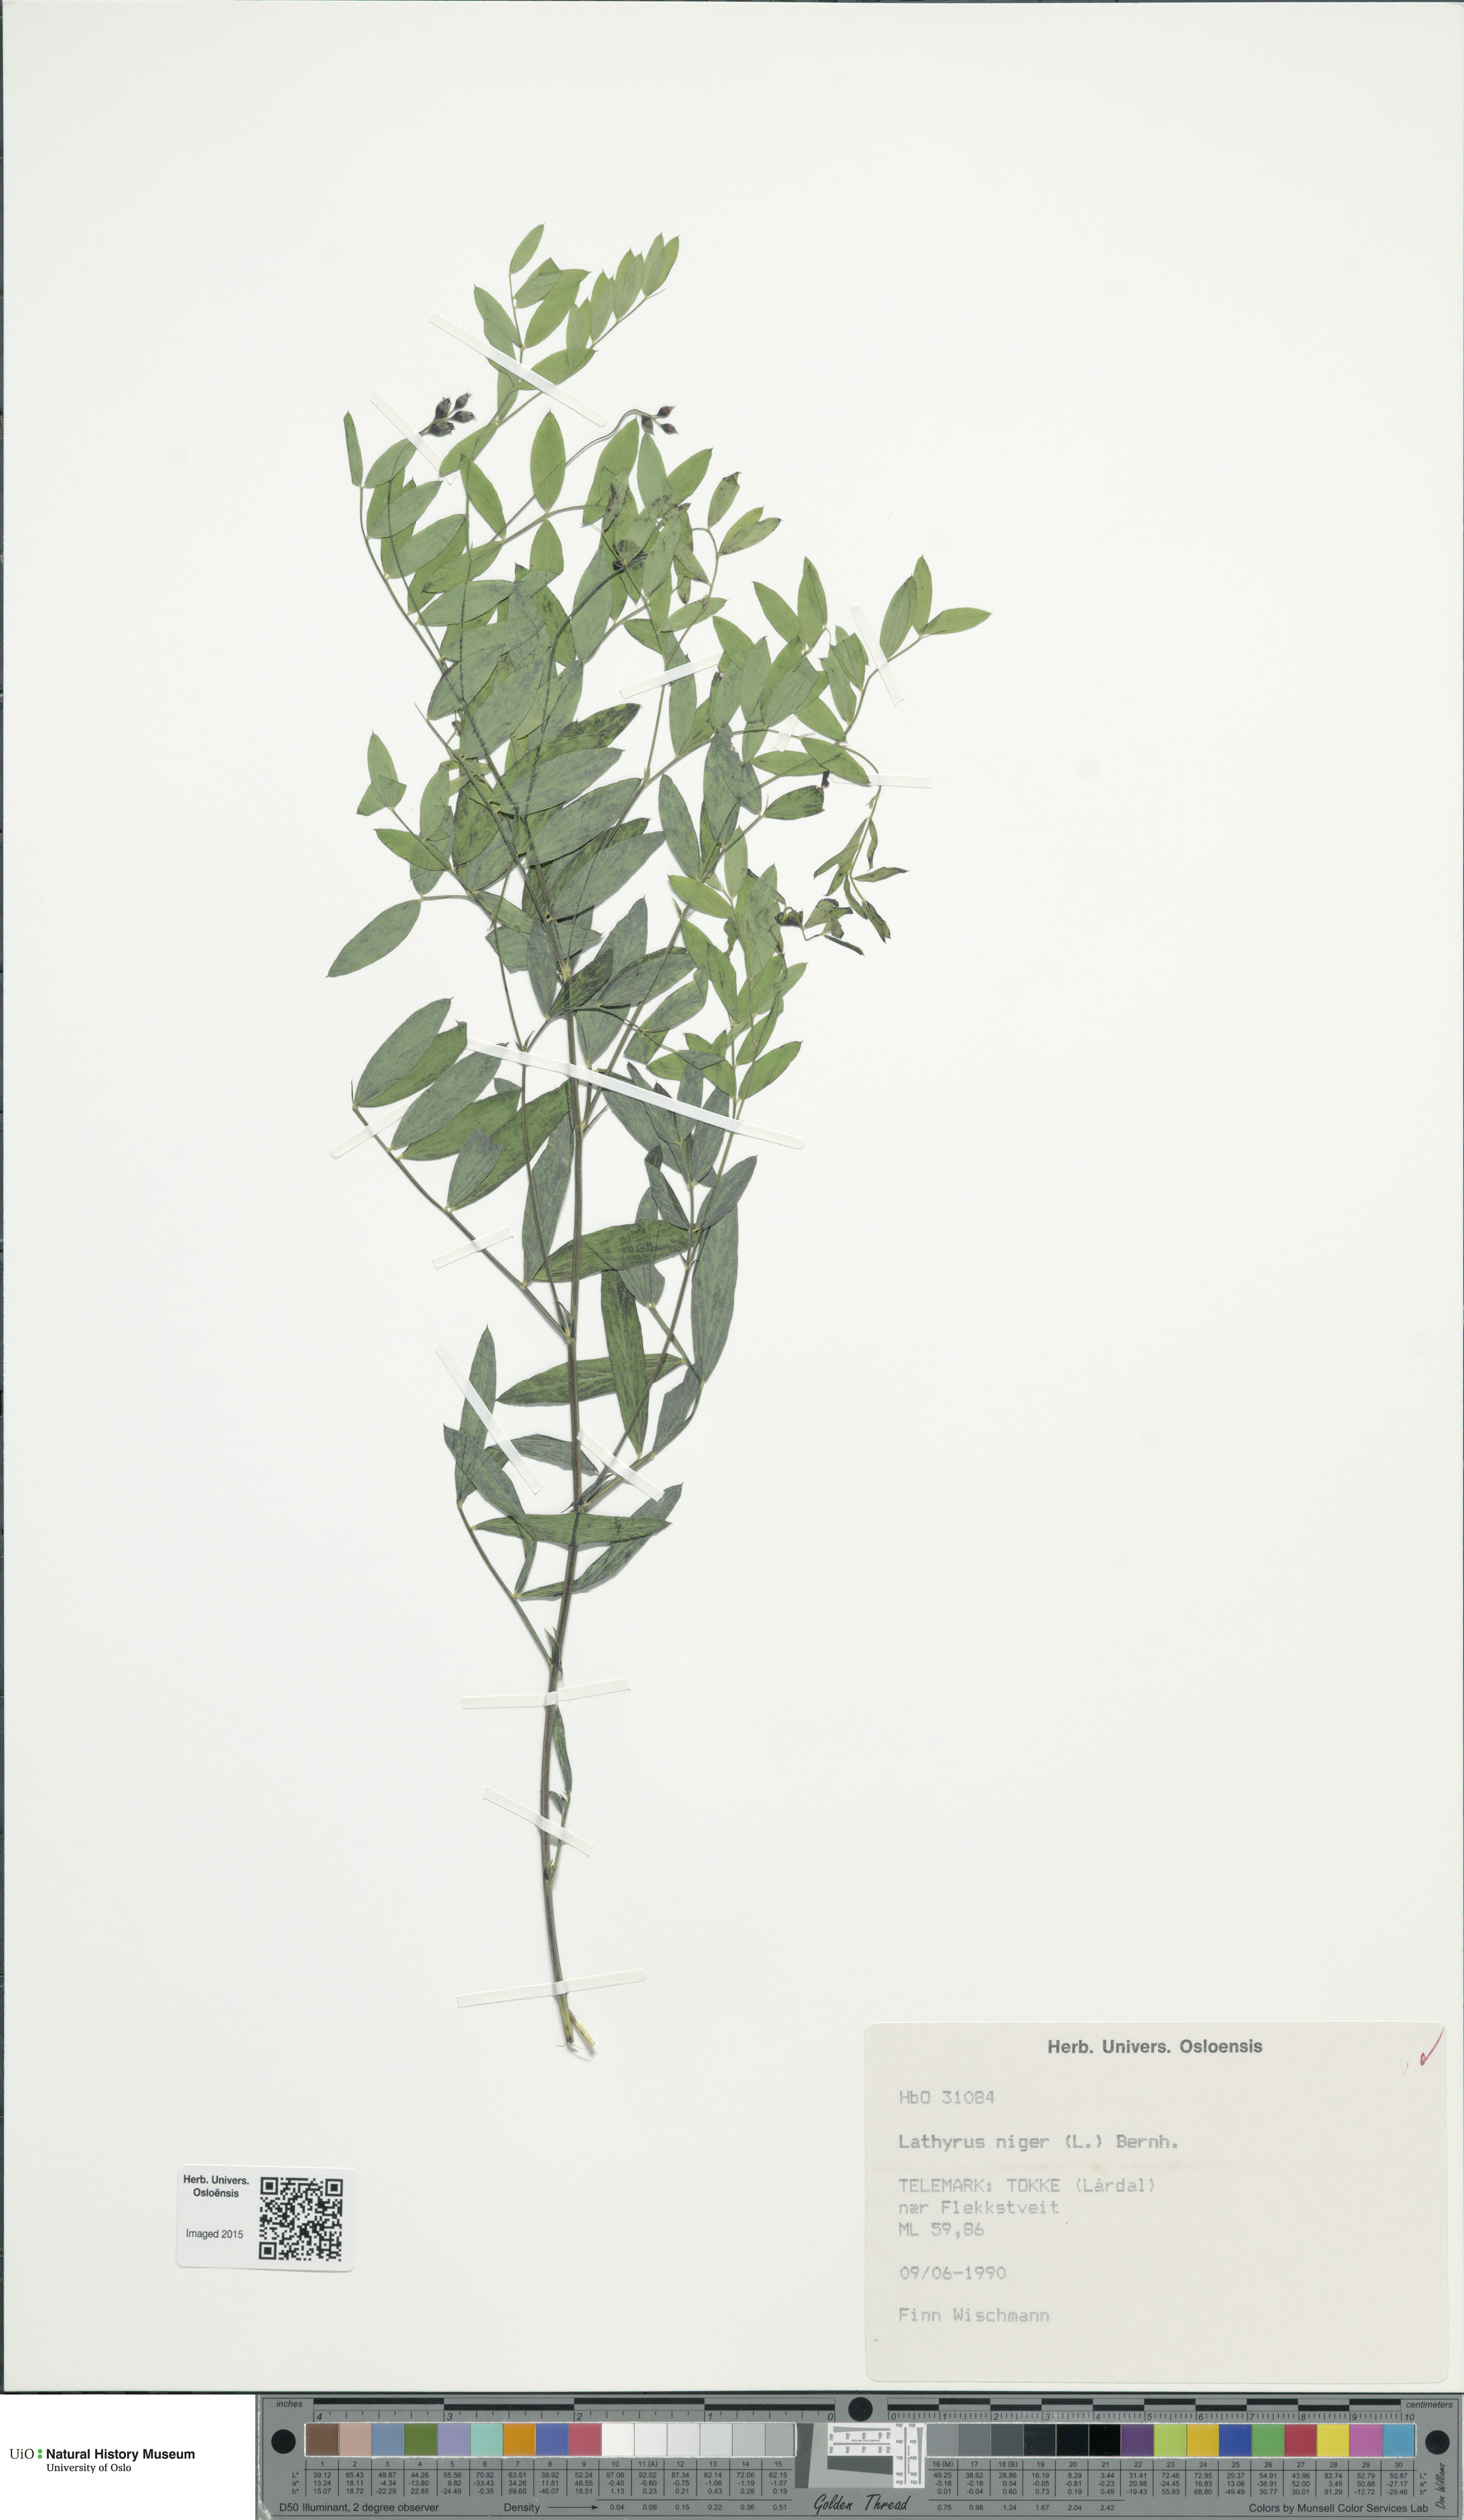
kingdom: Plantae
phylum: Tracheophyta
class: Magnoliopsida
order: Fabales
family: Fabaceae
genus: Lathyrus
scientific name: Lathyrus niger
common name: Black pea
